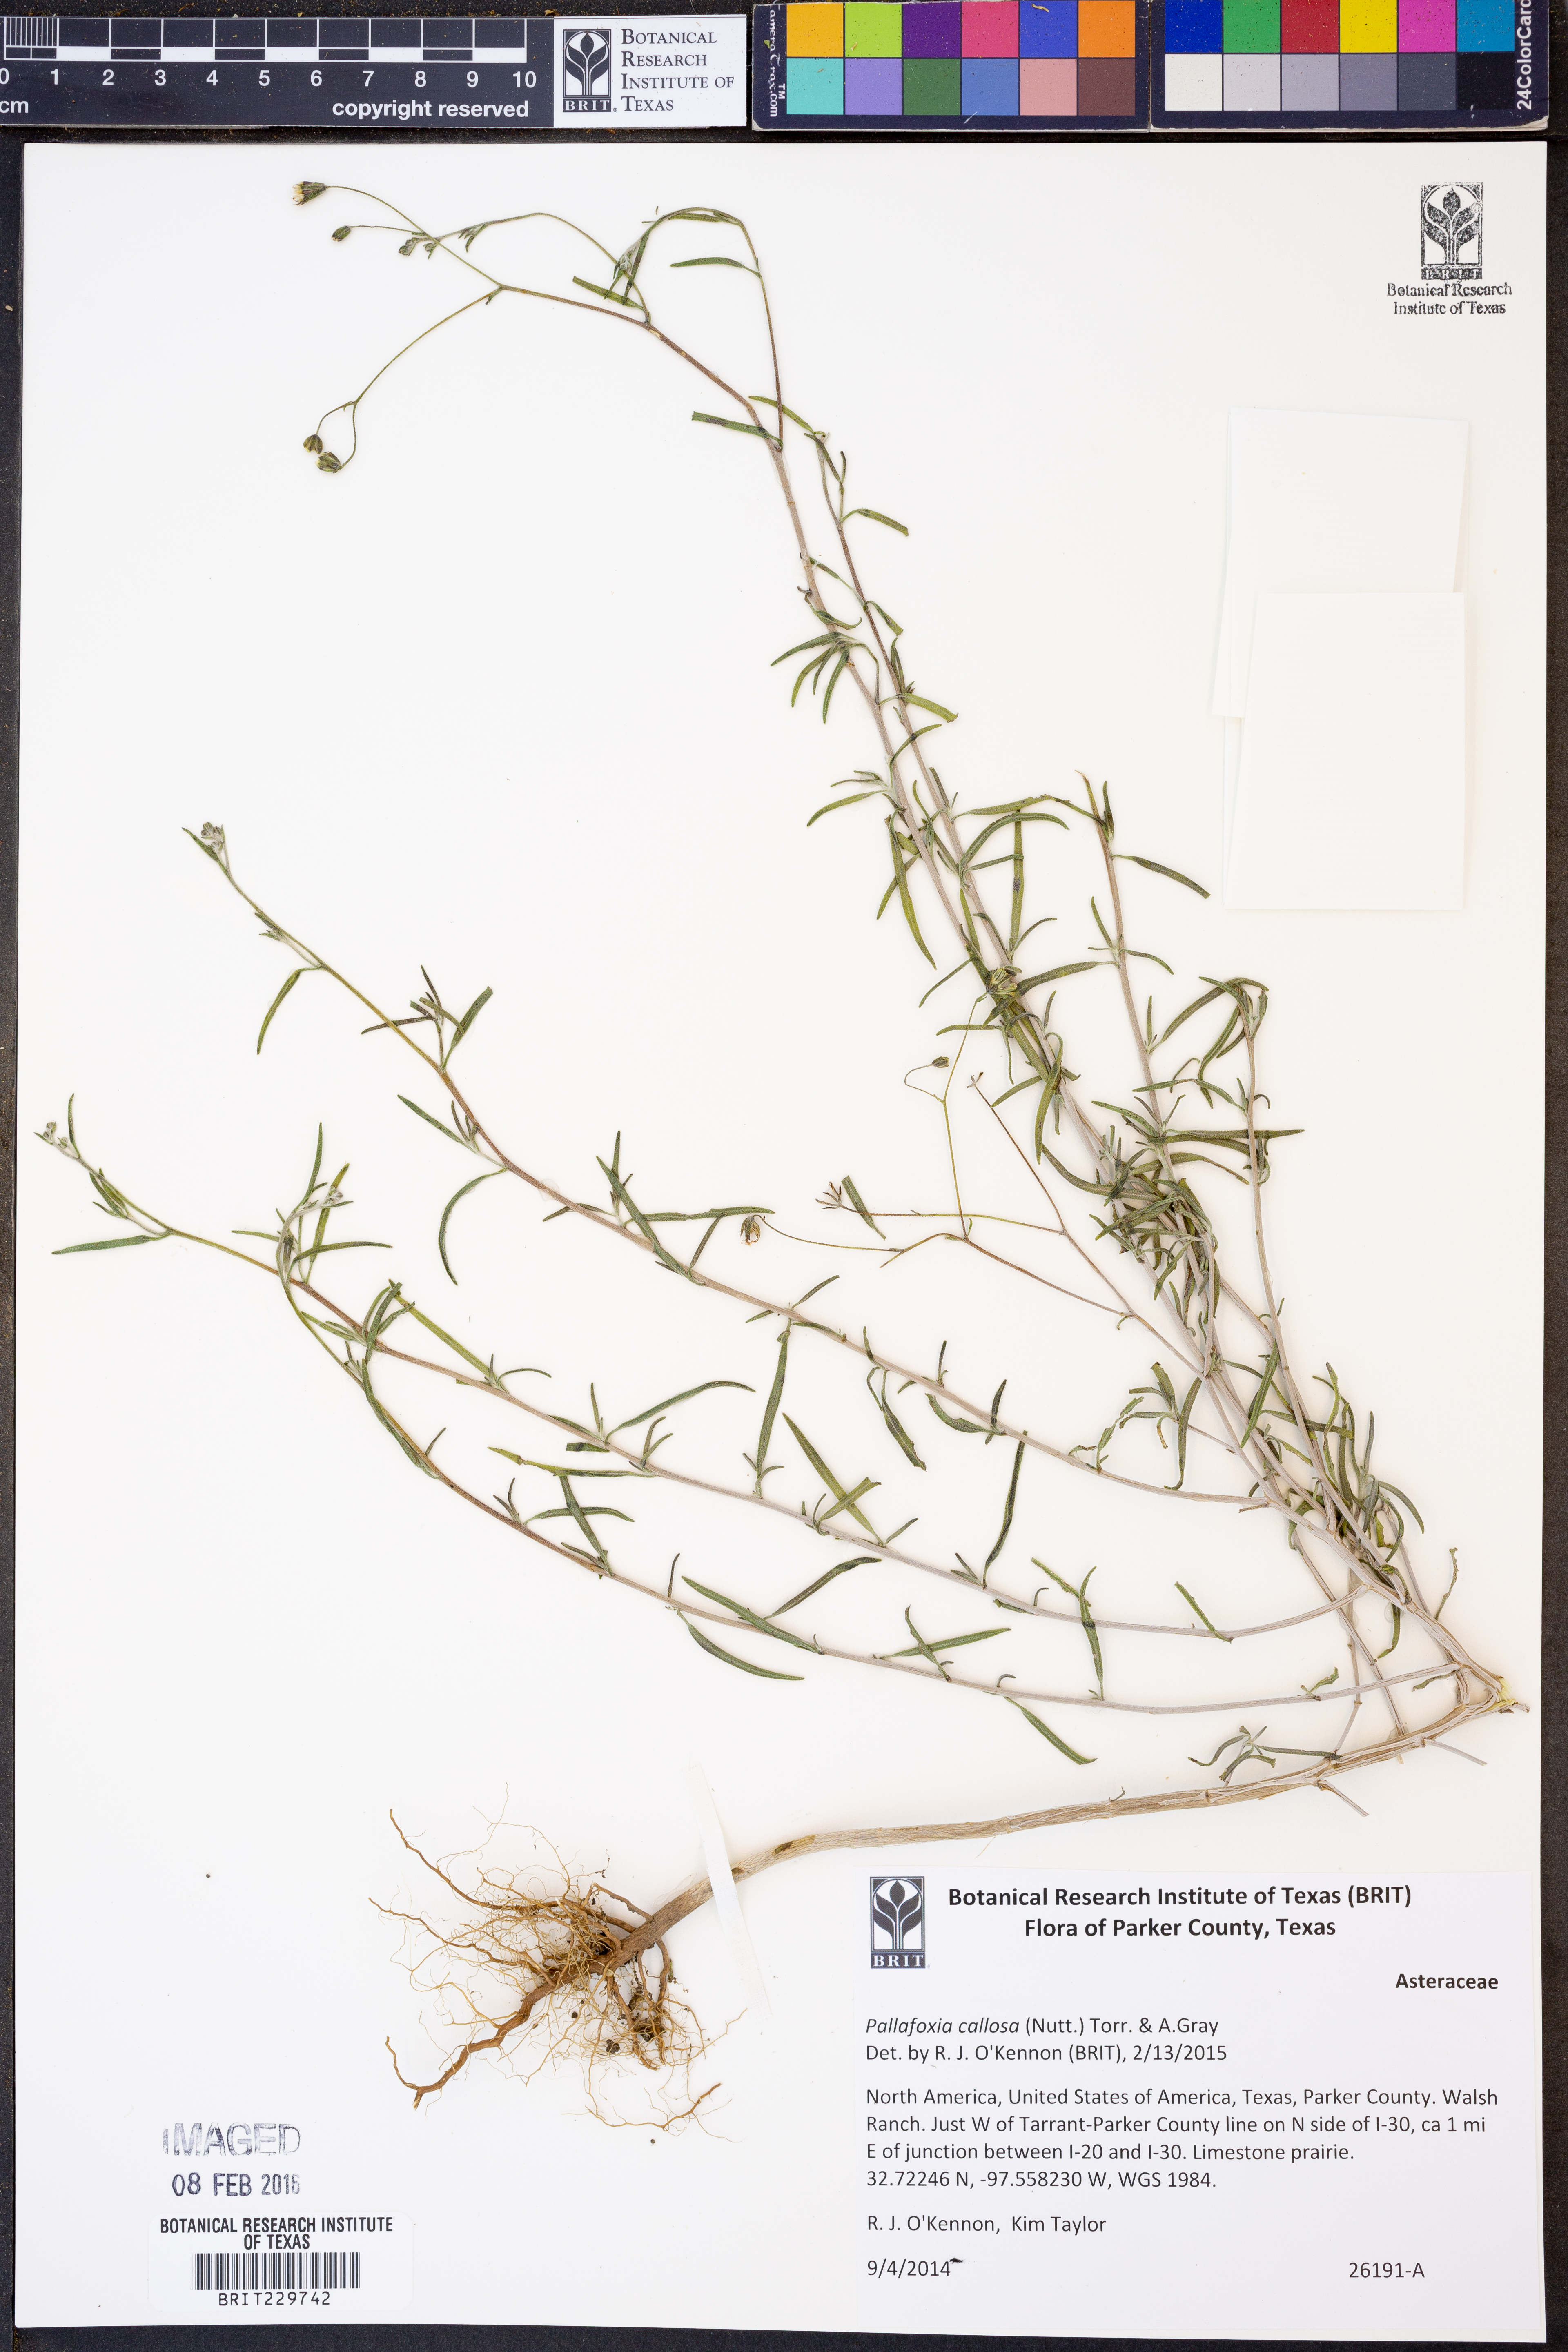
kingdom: Plantae
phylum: Tracheophyta
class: Magnoliopsida
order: Asterales
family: Asteraceae
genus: Palafoxia
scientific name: Palafoxia callosa
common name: Small palafox
